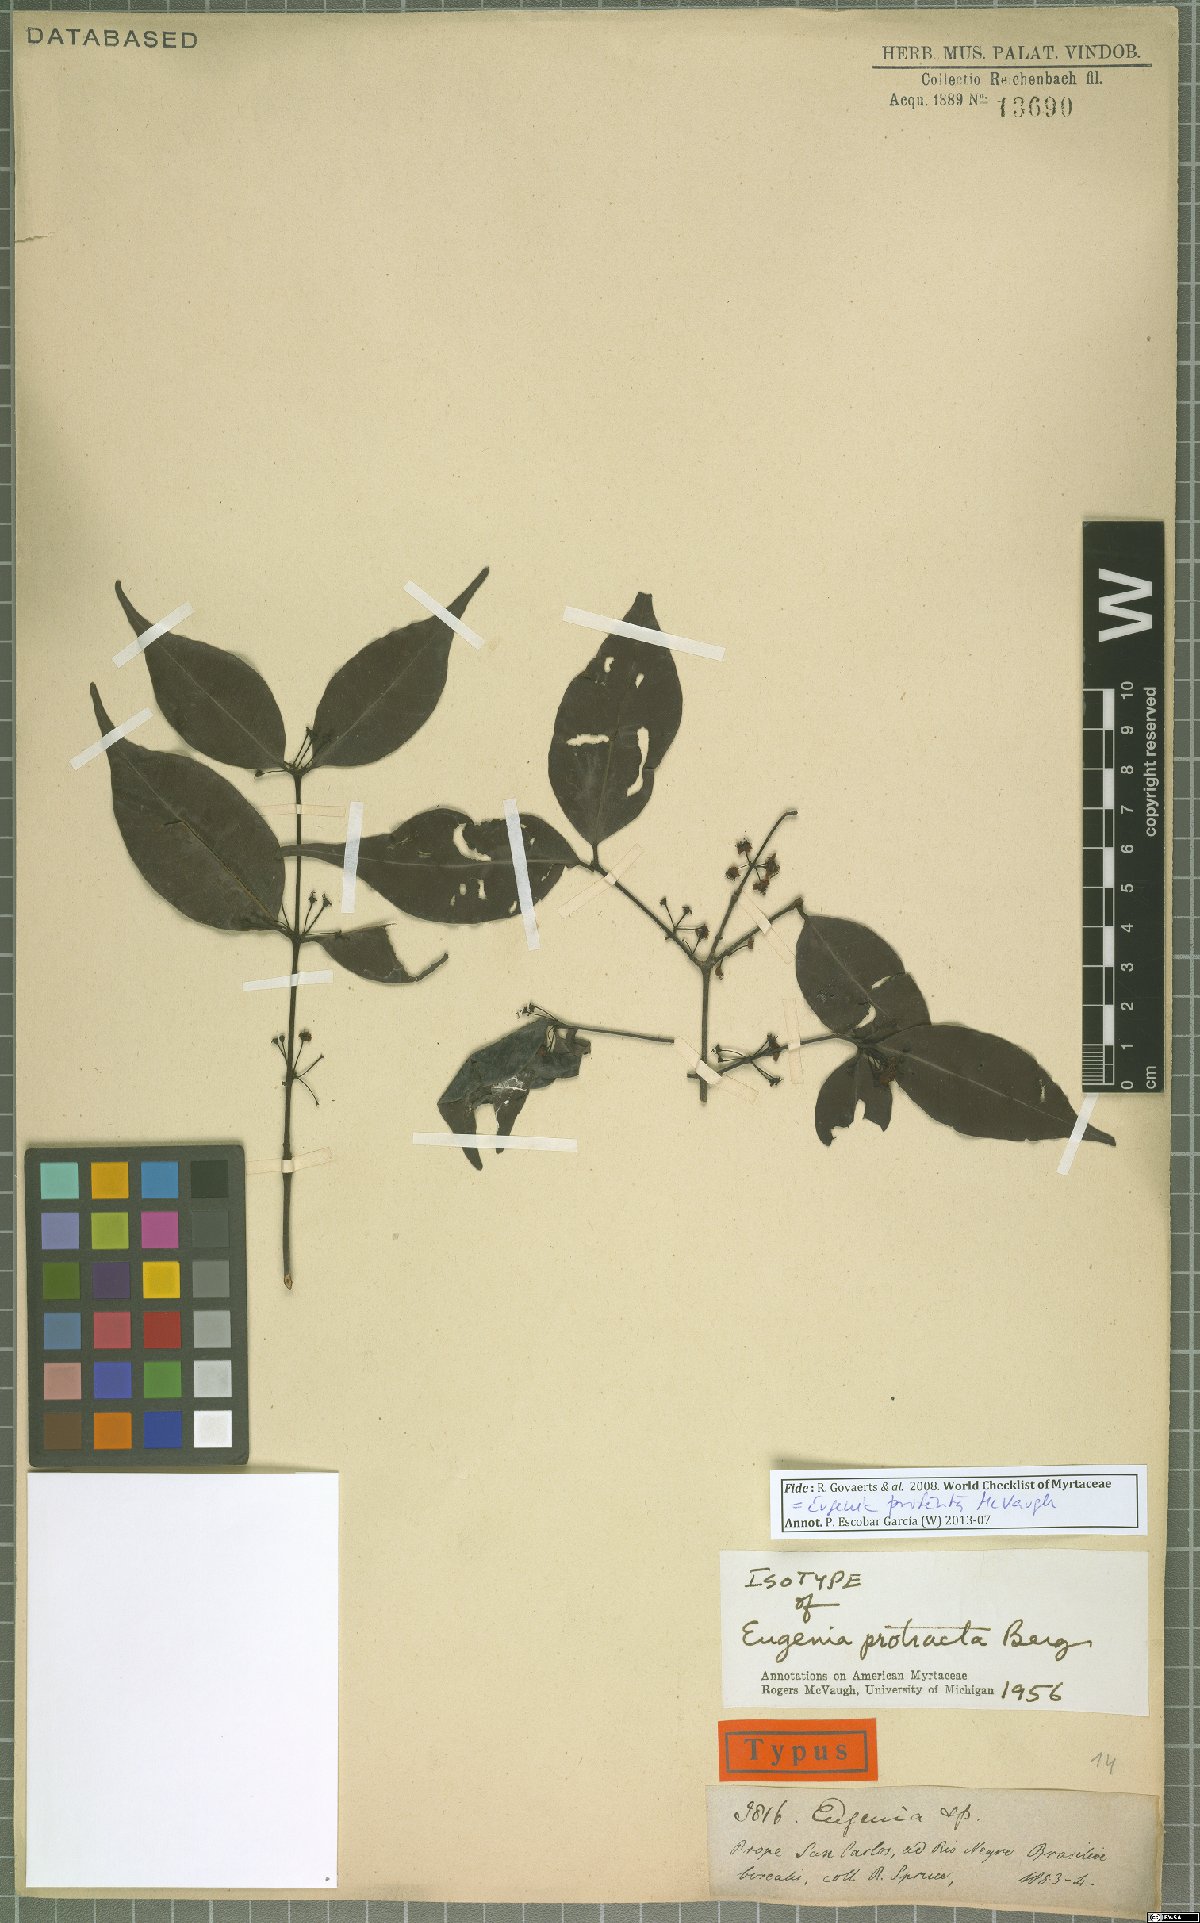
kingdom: Plantae
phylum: Tracheophyta
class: Magnoliopsida
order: Myrtales
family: Myrtaceae
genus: Eugenia
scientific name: Eugenia protenta
